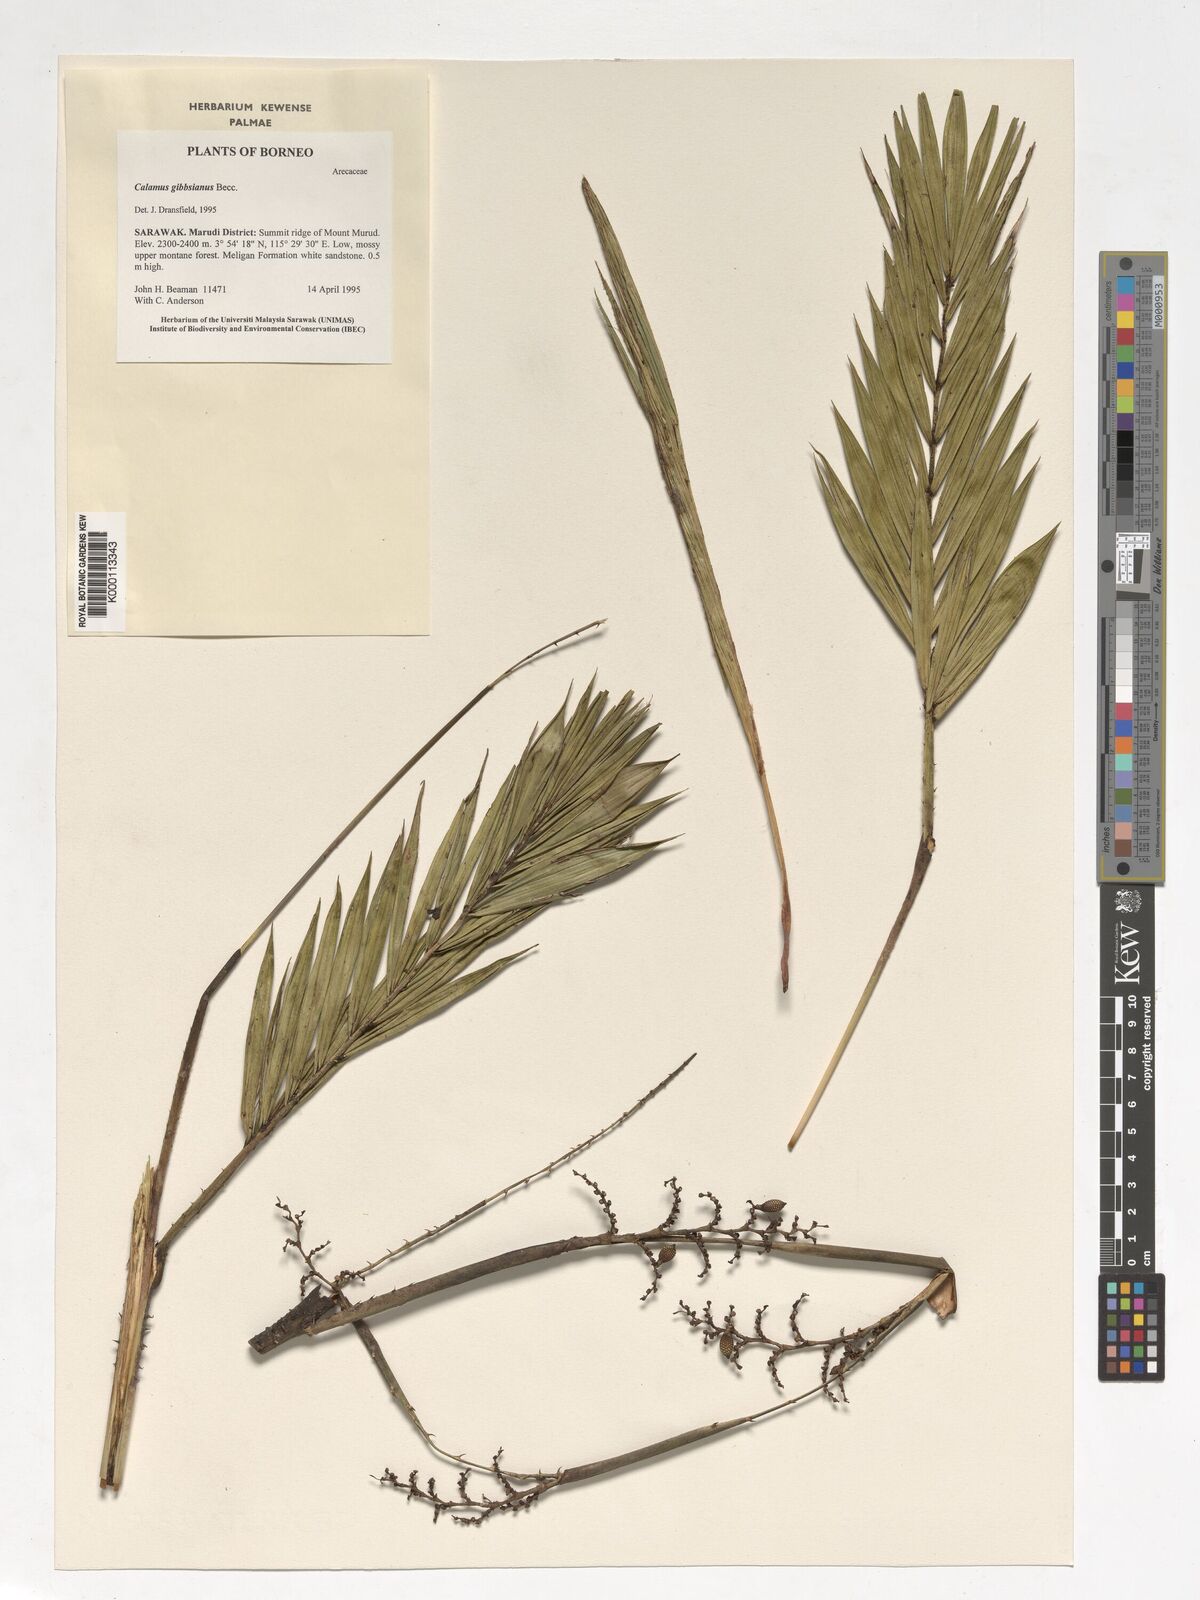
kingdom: Plantae
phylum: Tracheophyta
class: Liliopsida
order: Arecales
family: Arecaceae
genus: Calamus
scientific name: Calamus gibbsianus
